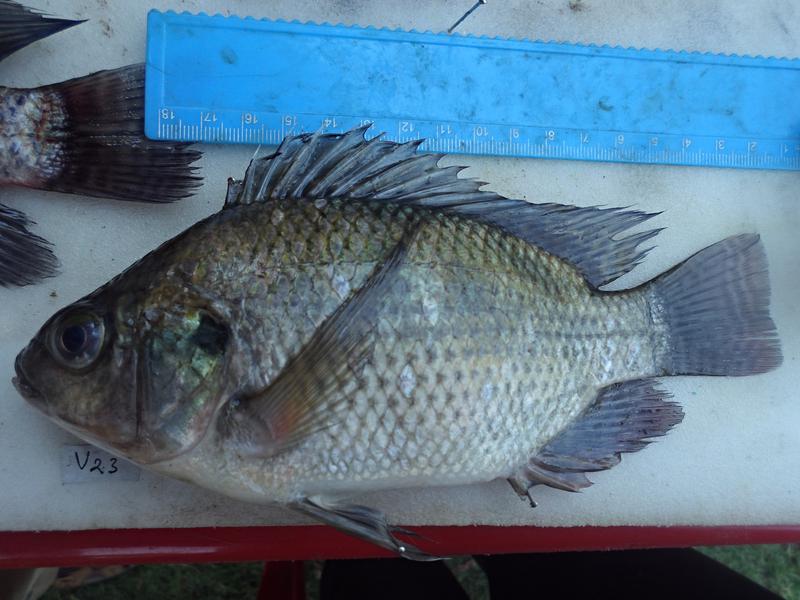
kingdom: Animalia
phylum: Chordata
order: Perciformes
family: Cichlidae
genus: Oreochromis
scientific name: Oreochromis niloticus
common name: Nile tilapia
